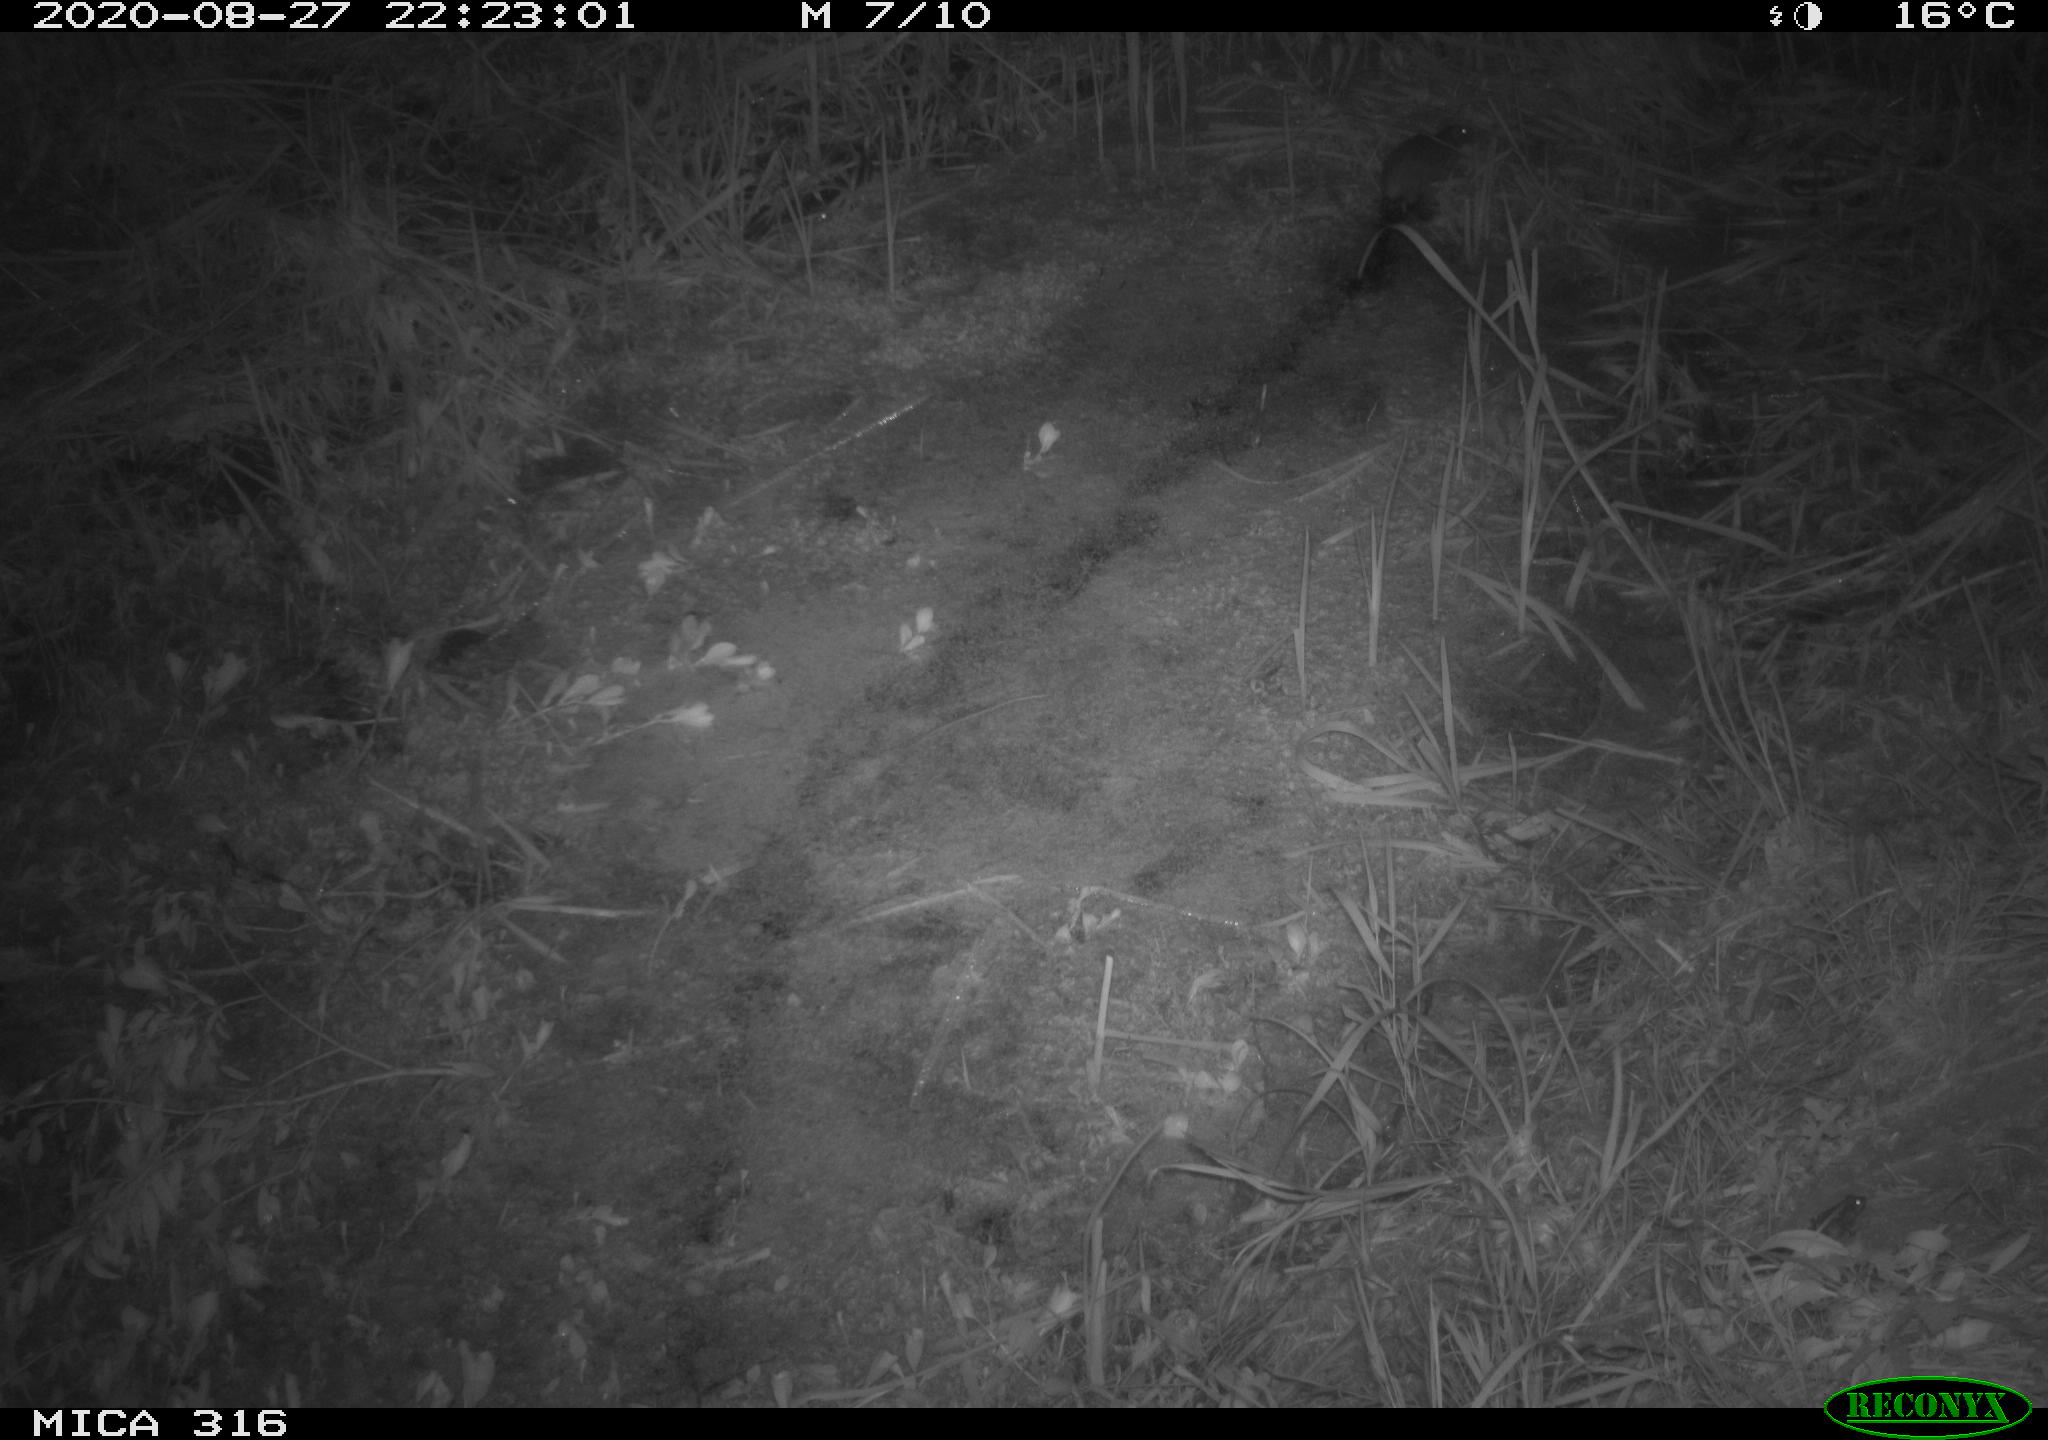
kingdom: Animalia
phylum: Chordata
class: Mammalia
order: Rodentia
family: Muridae
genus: Rattus
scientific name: Rattus norvegicus
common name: Brown rat
